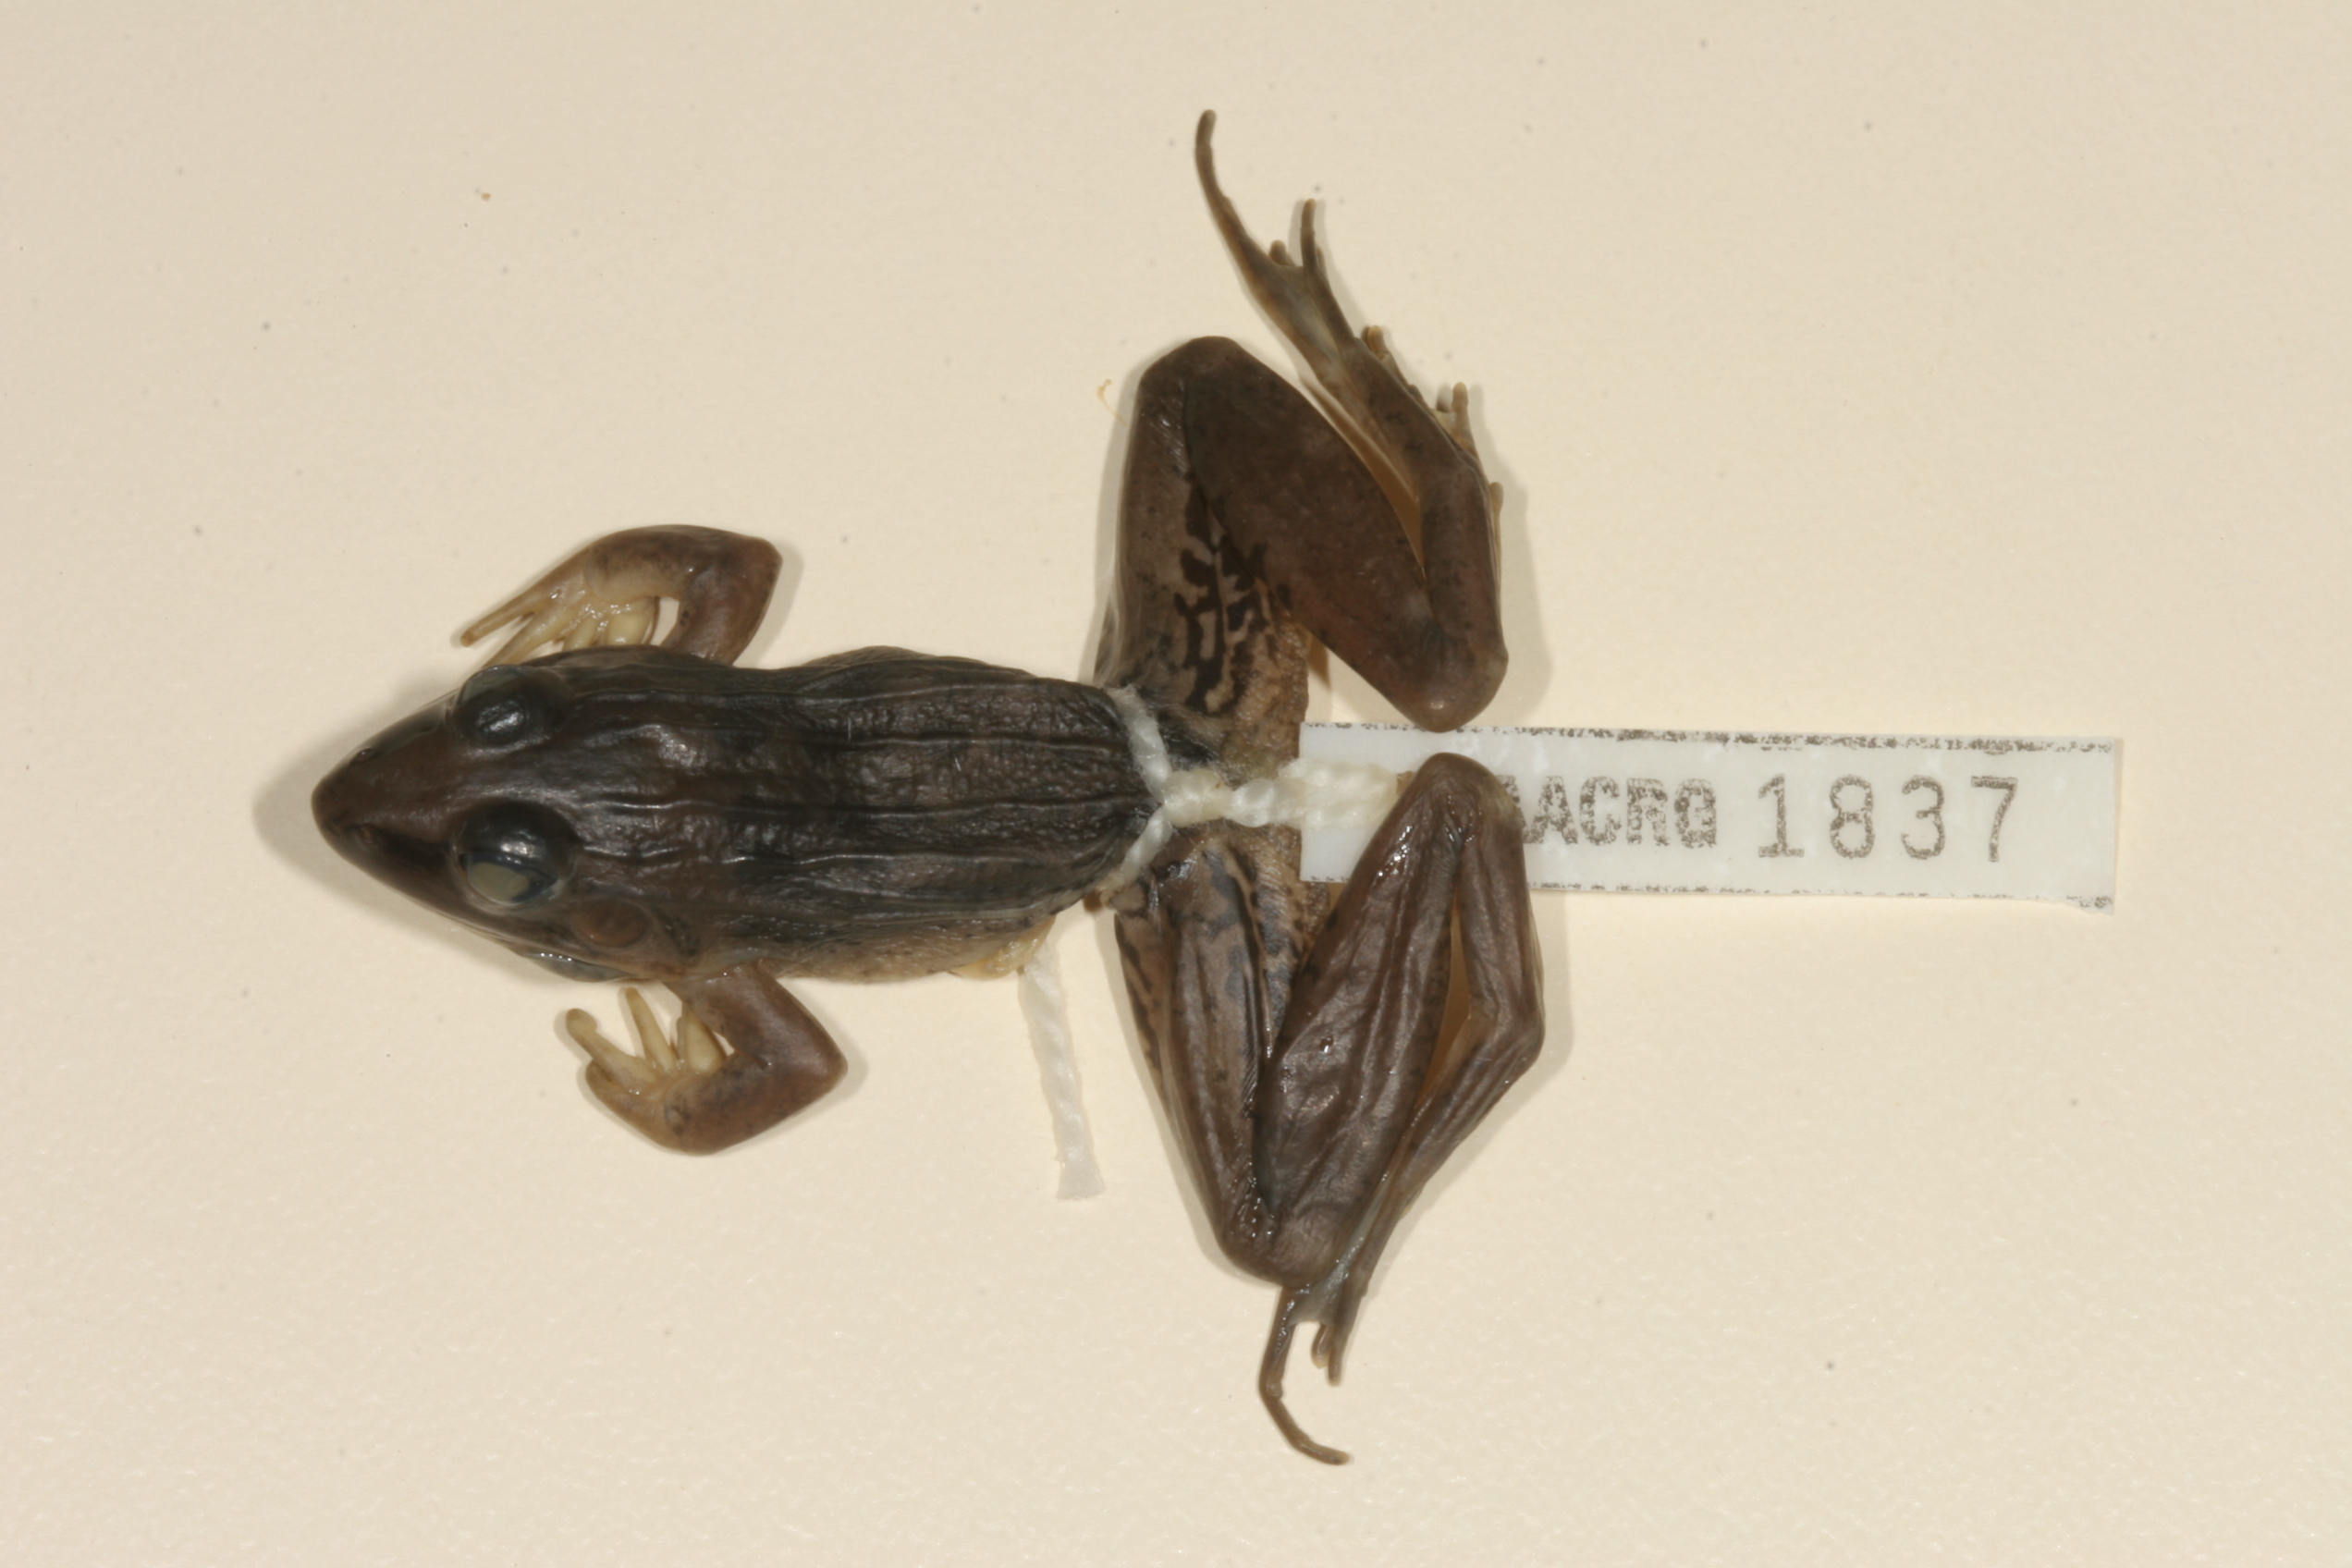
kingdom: Animalia
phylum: Chordata
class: Amphibia
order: Anura
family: Ptychadenidae
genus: Ptychadena
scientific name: Ptychadena mascareniensis
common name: Mascarene grass frog
